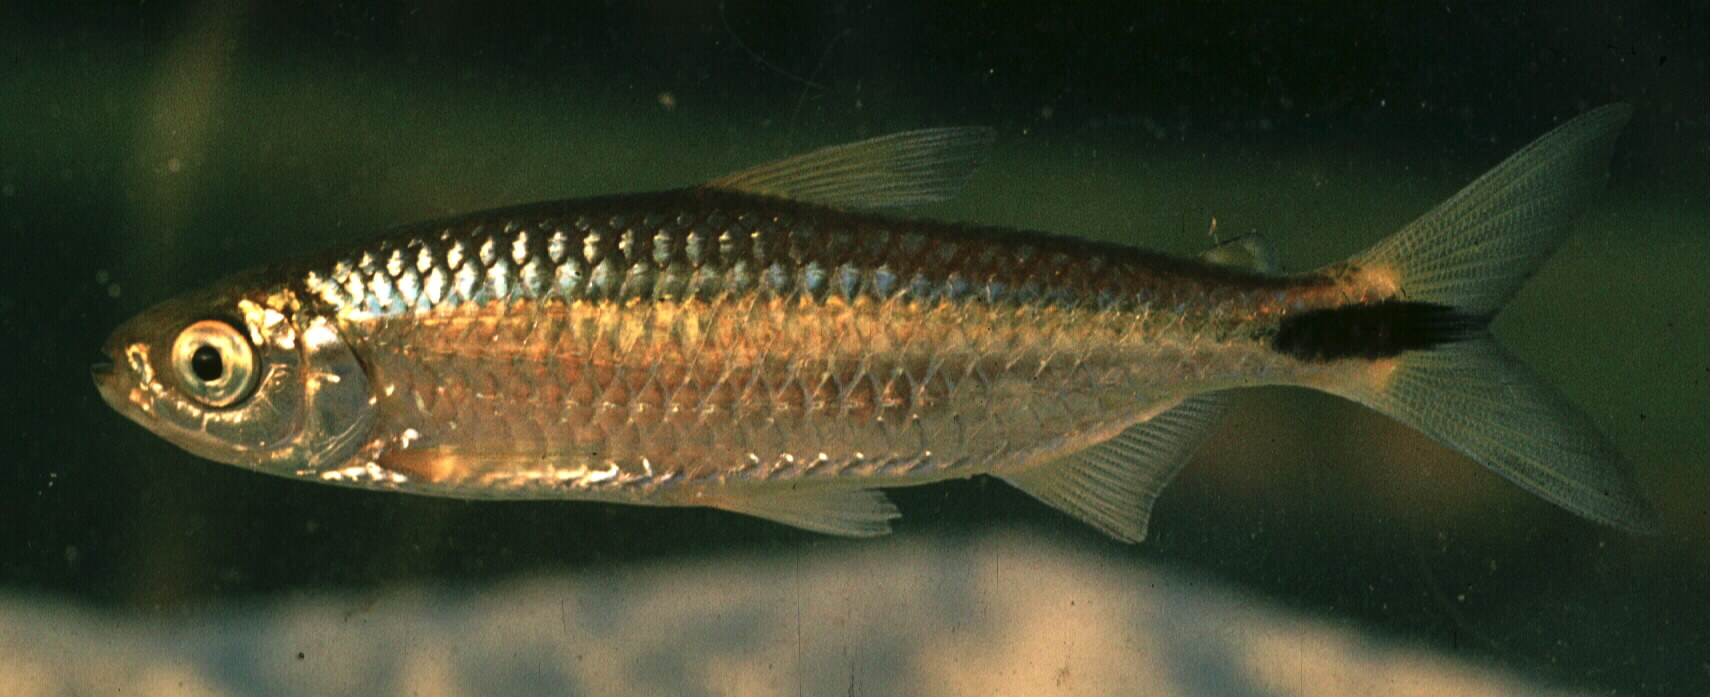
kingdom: Animalia
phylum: Chordata
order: Characiformes
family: Alestidae
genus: Brycinus
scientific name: Brycinus lateralis
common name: Striped robber
